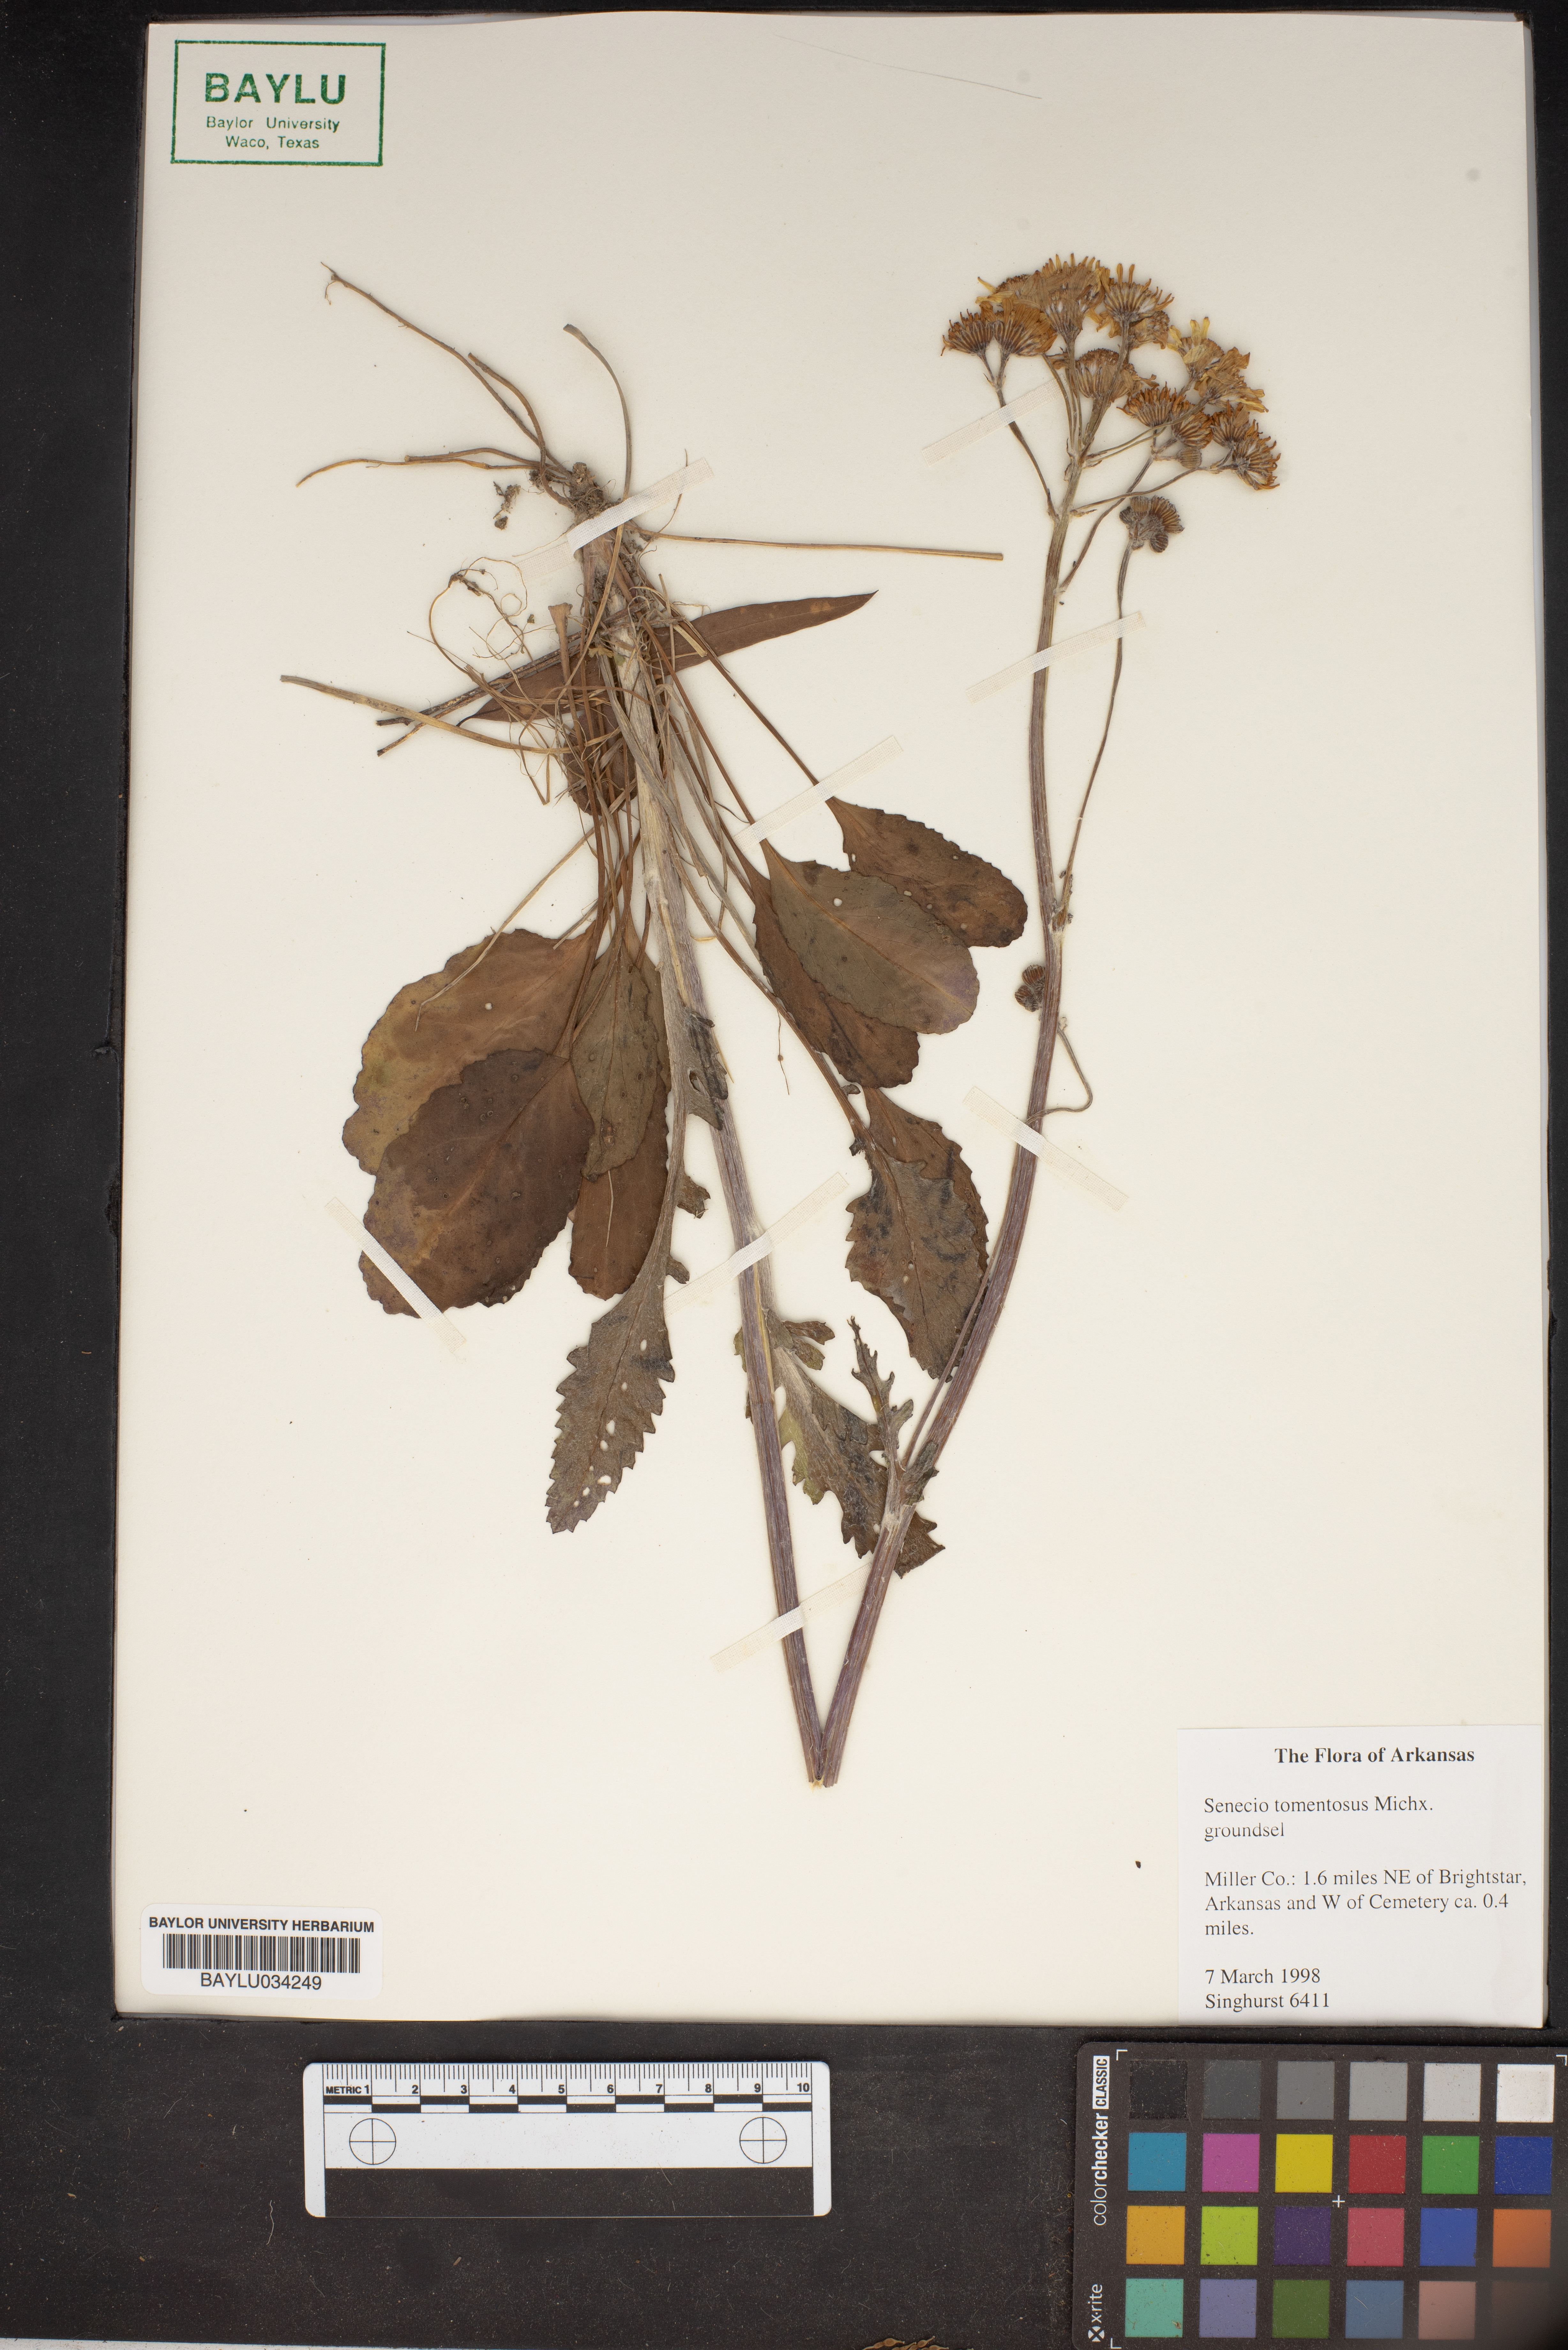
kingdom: Plantae
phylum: Tracheophyta
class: Magnoliopsida
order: Asterales
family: Asteraceae
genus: Senecio
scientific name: Senecio cinerascens
